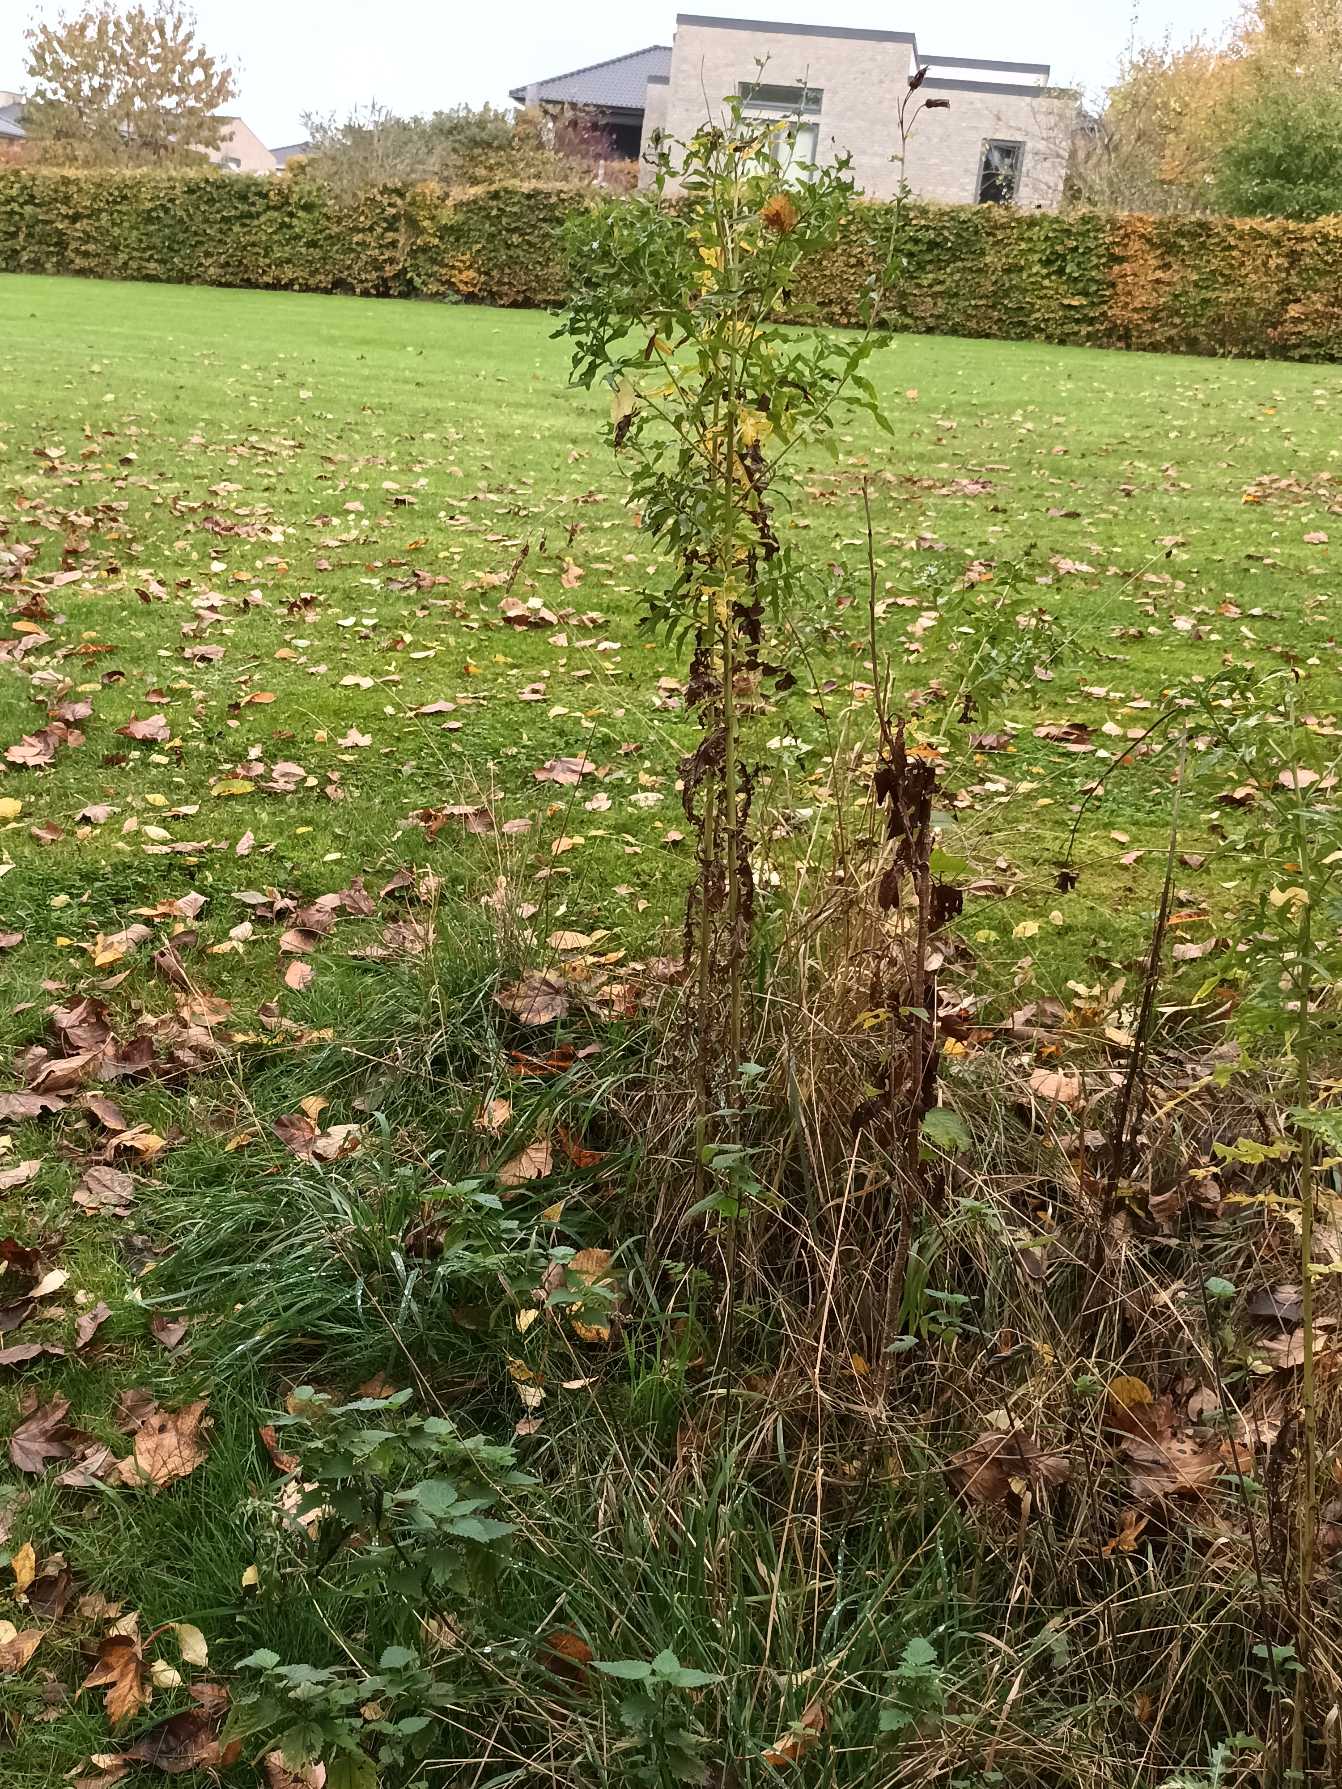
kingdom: Plantae
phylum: Tracheophyta
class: Magnoliopsida
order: Asterales
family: Asteraceae
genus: Cirsium
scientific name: Cirsium arvense
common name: Ager-tidsel
